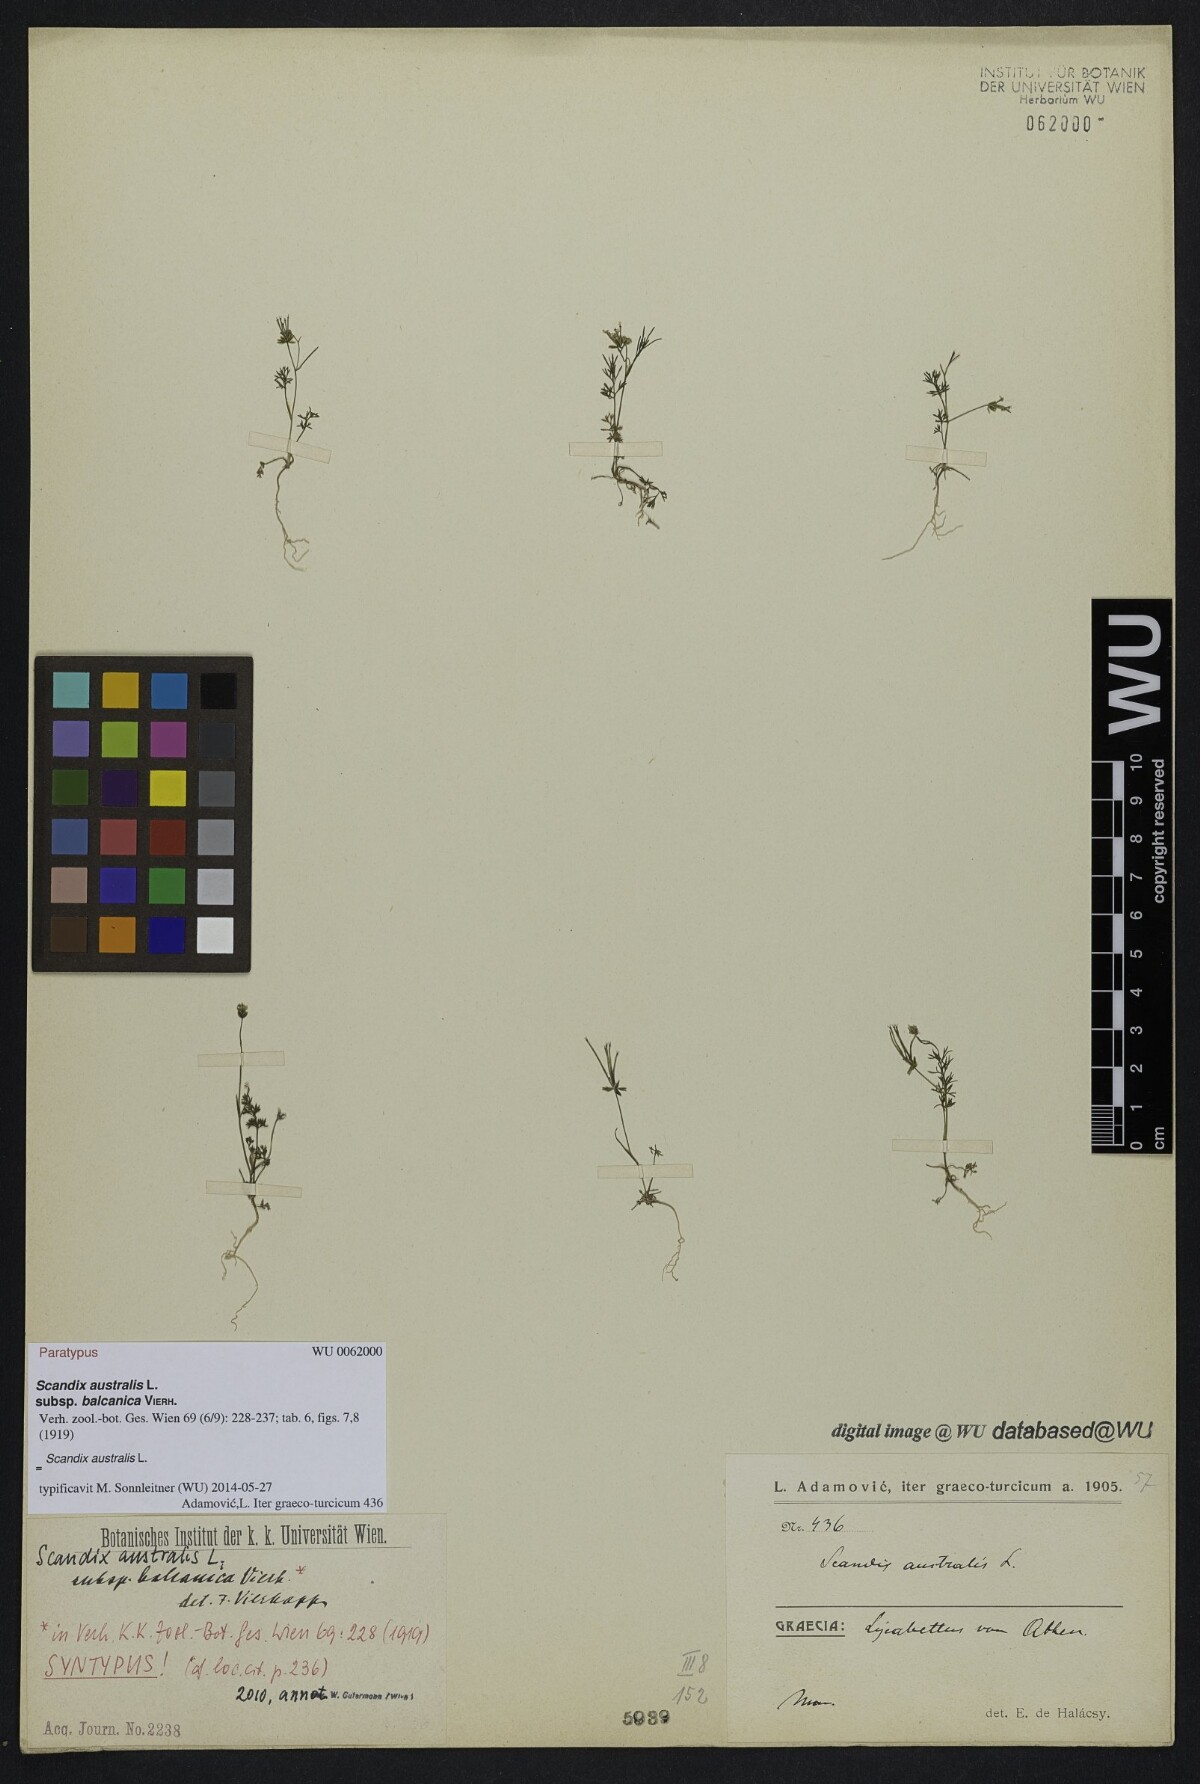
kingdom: Plantae
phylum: Tracheophyta
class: Magnoliopsida
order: Apiales
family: Apiaceae
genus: Scandix
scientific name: Scandix australis
